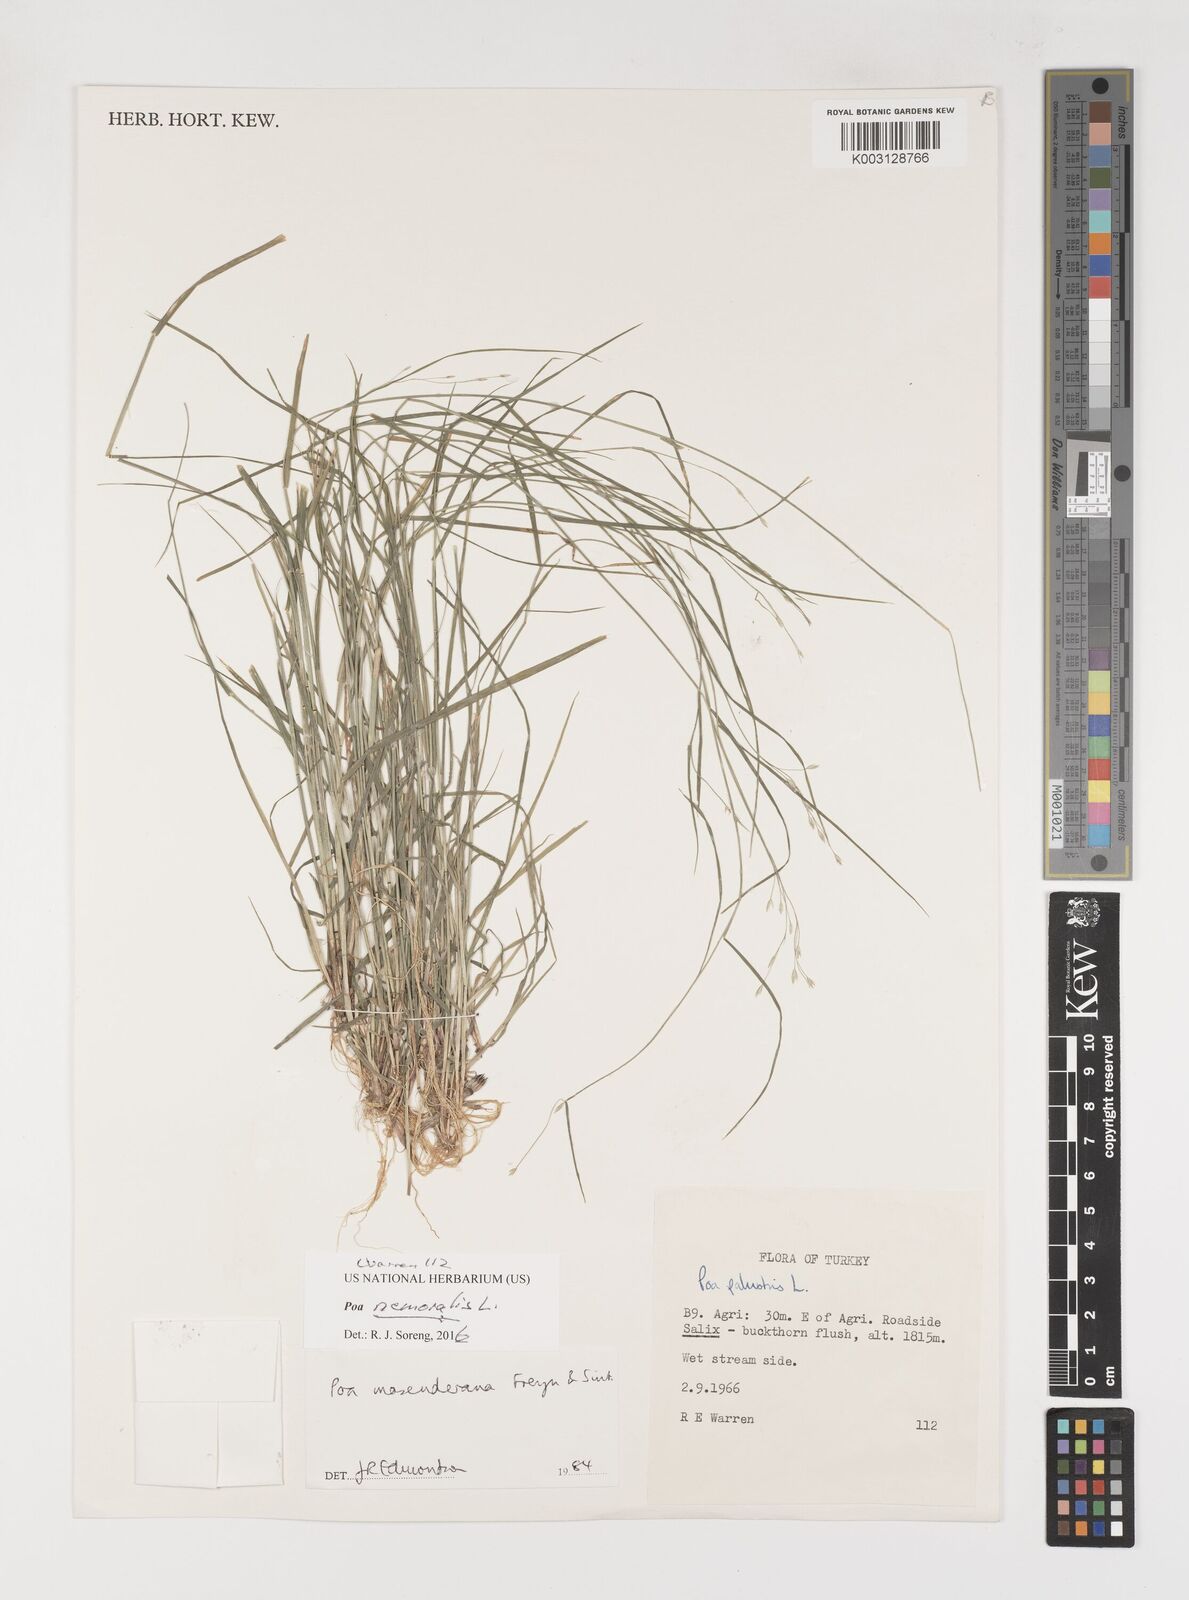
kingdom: Plantae
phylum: Tracheophyta
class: Liliopsida
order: Poales
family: Poaceae
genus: Poa
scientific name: Poa masenderana
